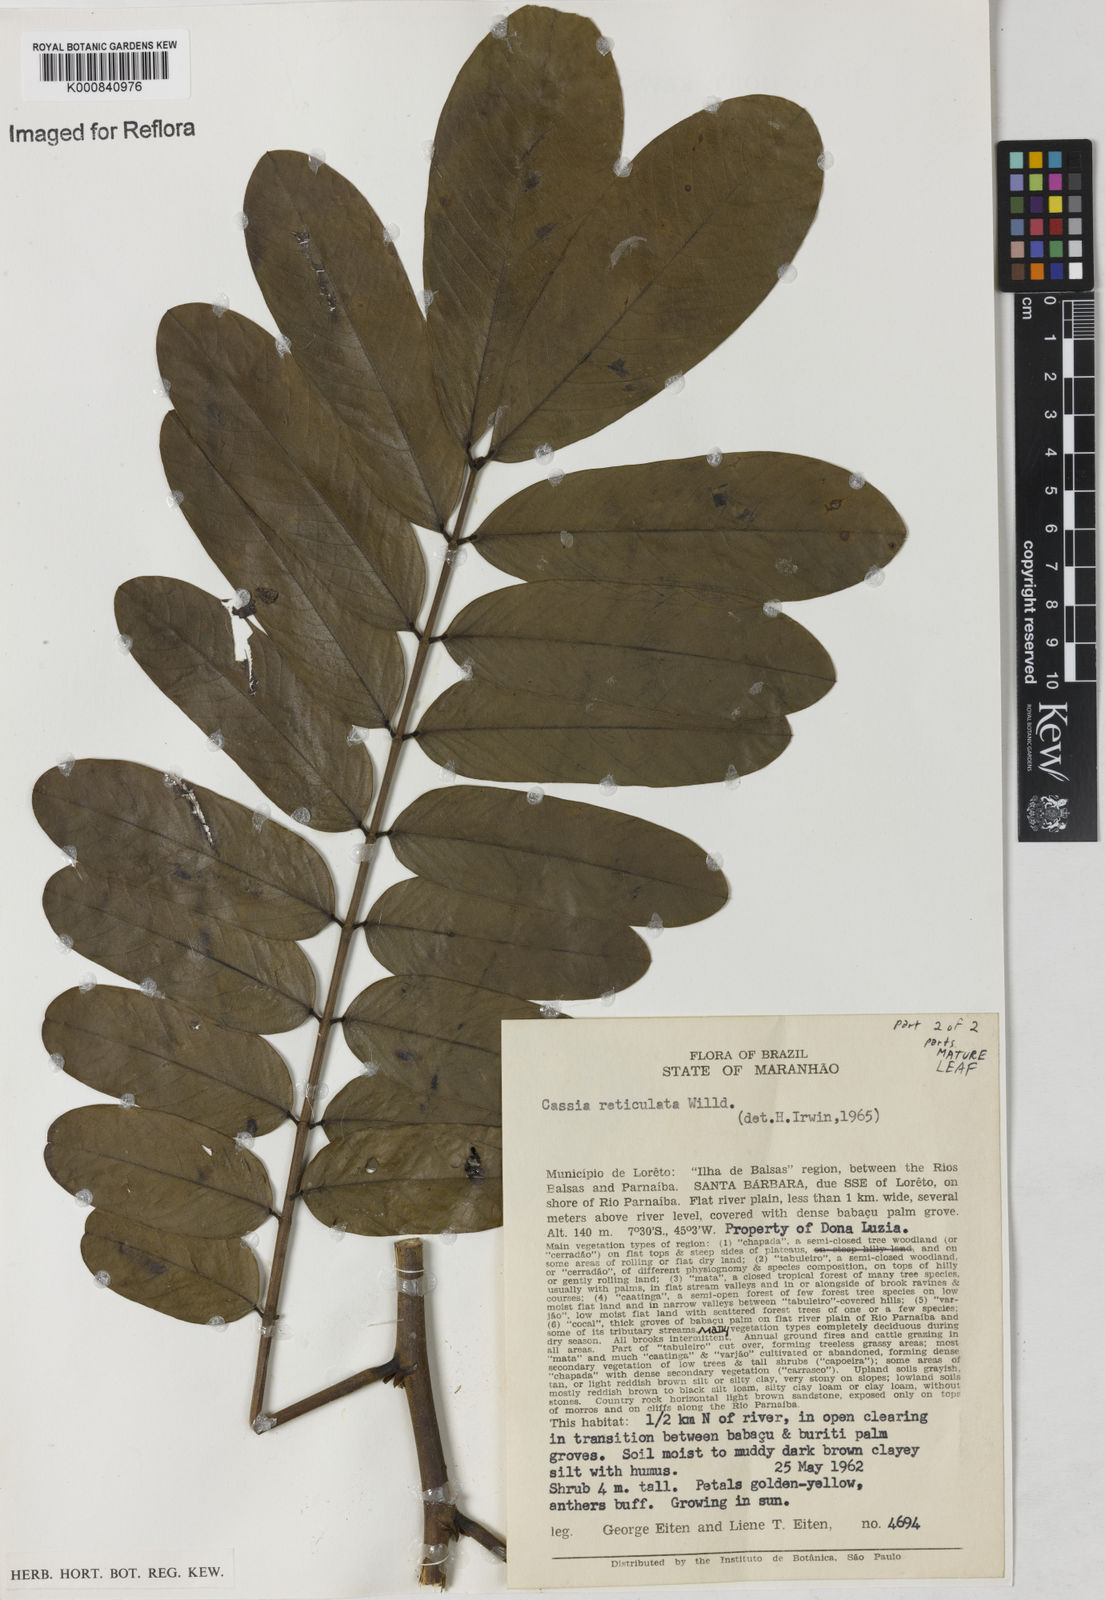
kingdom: Plantae
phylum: Tracheophyta
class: Magnoliopsida
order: Fabales
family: Fabaceae
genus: Senna
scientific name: Senna reticulata
